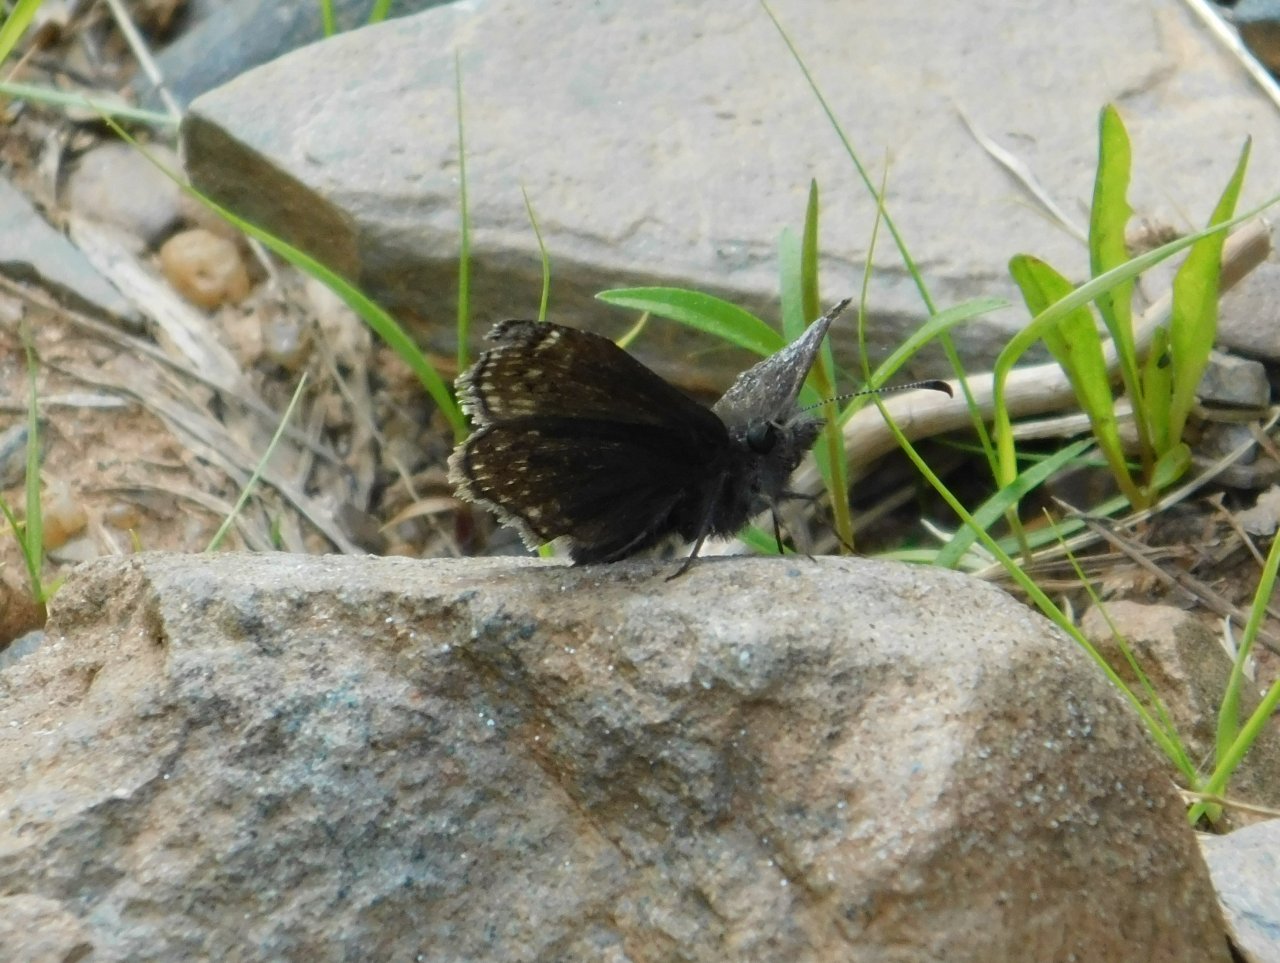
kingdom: Animalia
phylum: Arthropoda
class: Insecta
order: Lepidoptera
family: Hesperiidae
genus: Erynnis
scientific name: Erynnis icelus
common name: Dreamy Duskywing
